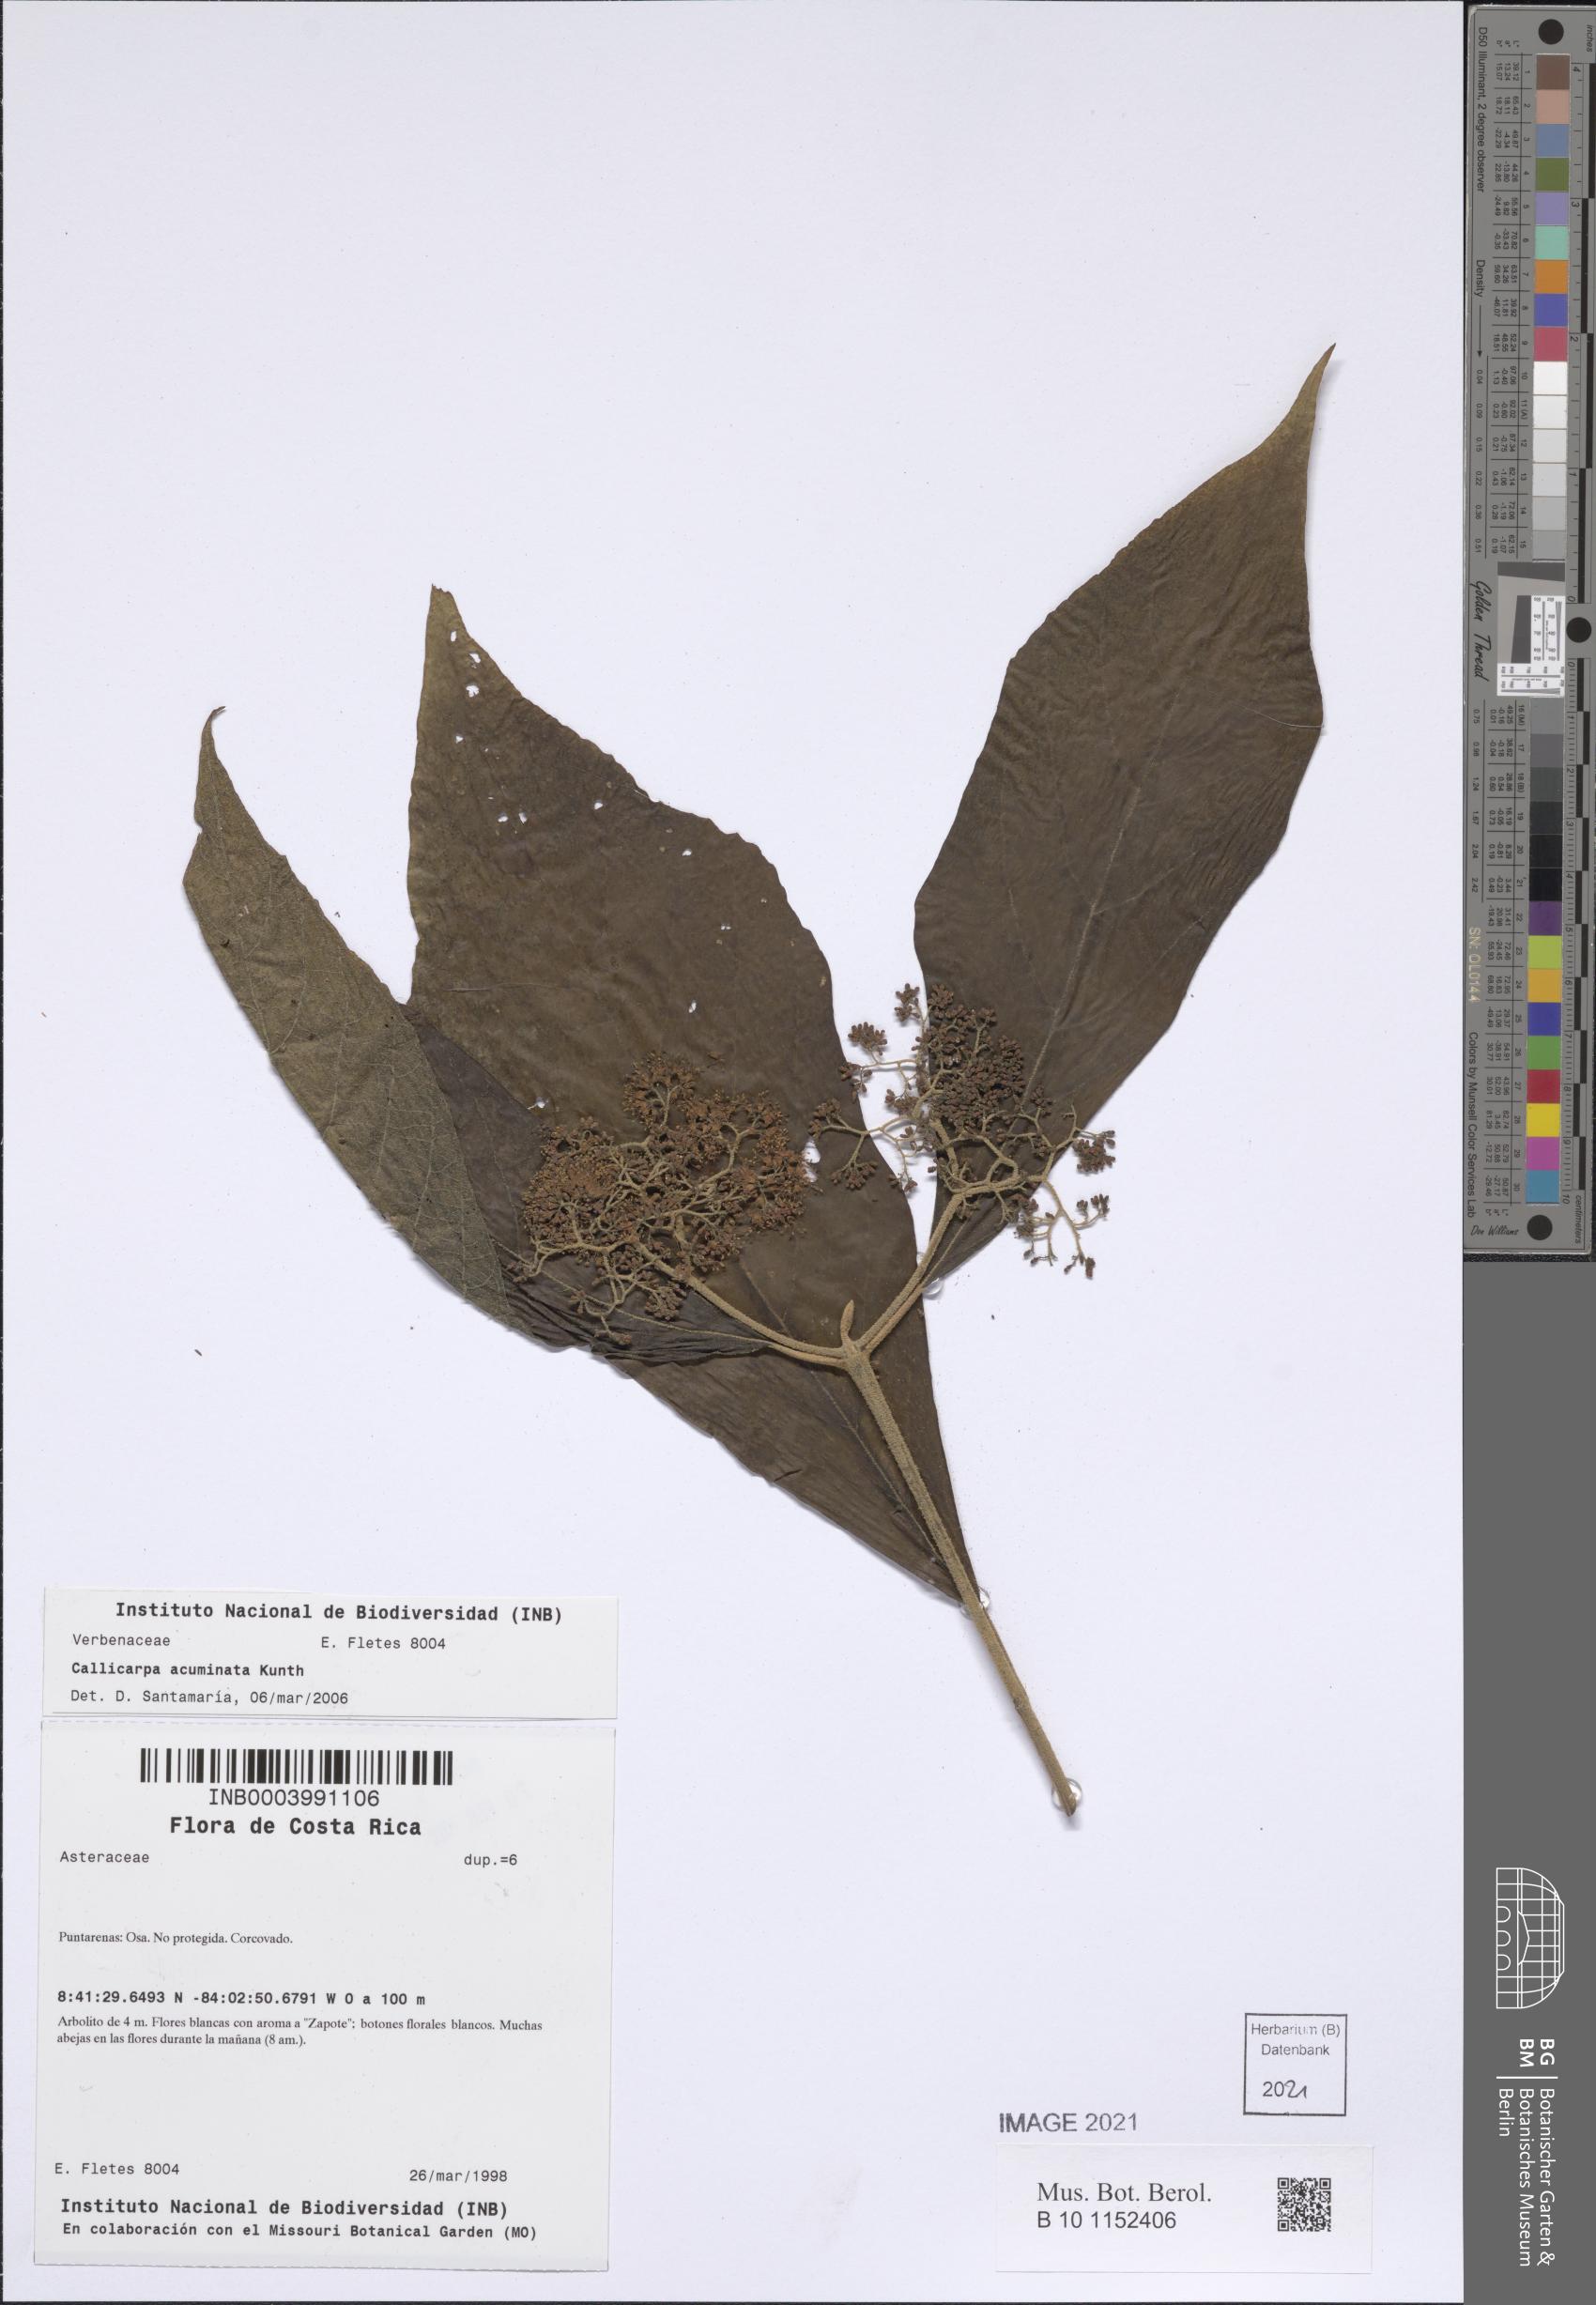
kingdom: Plantae
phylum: Tracheophyta
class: Magnoliopsida
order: Lamiales
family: Lamiaceae
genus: Callicarpa
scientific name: Callicarpa acuminata
